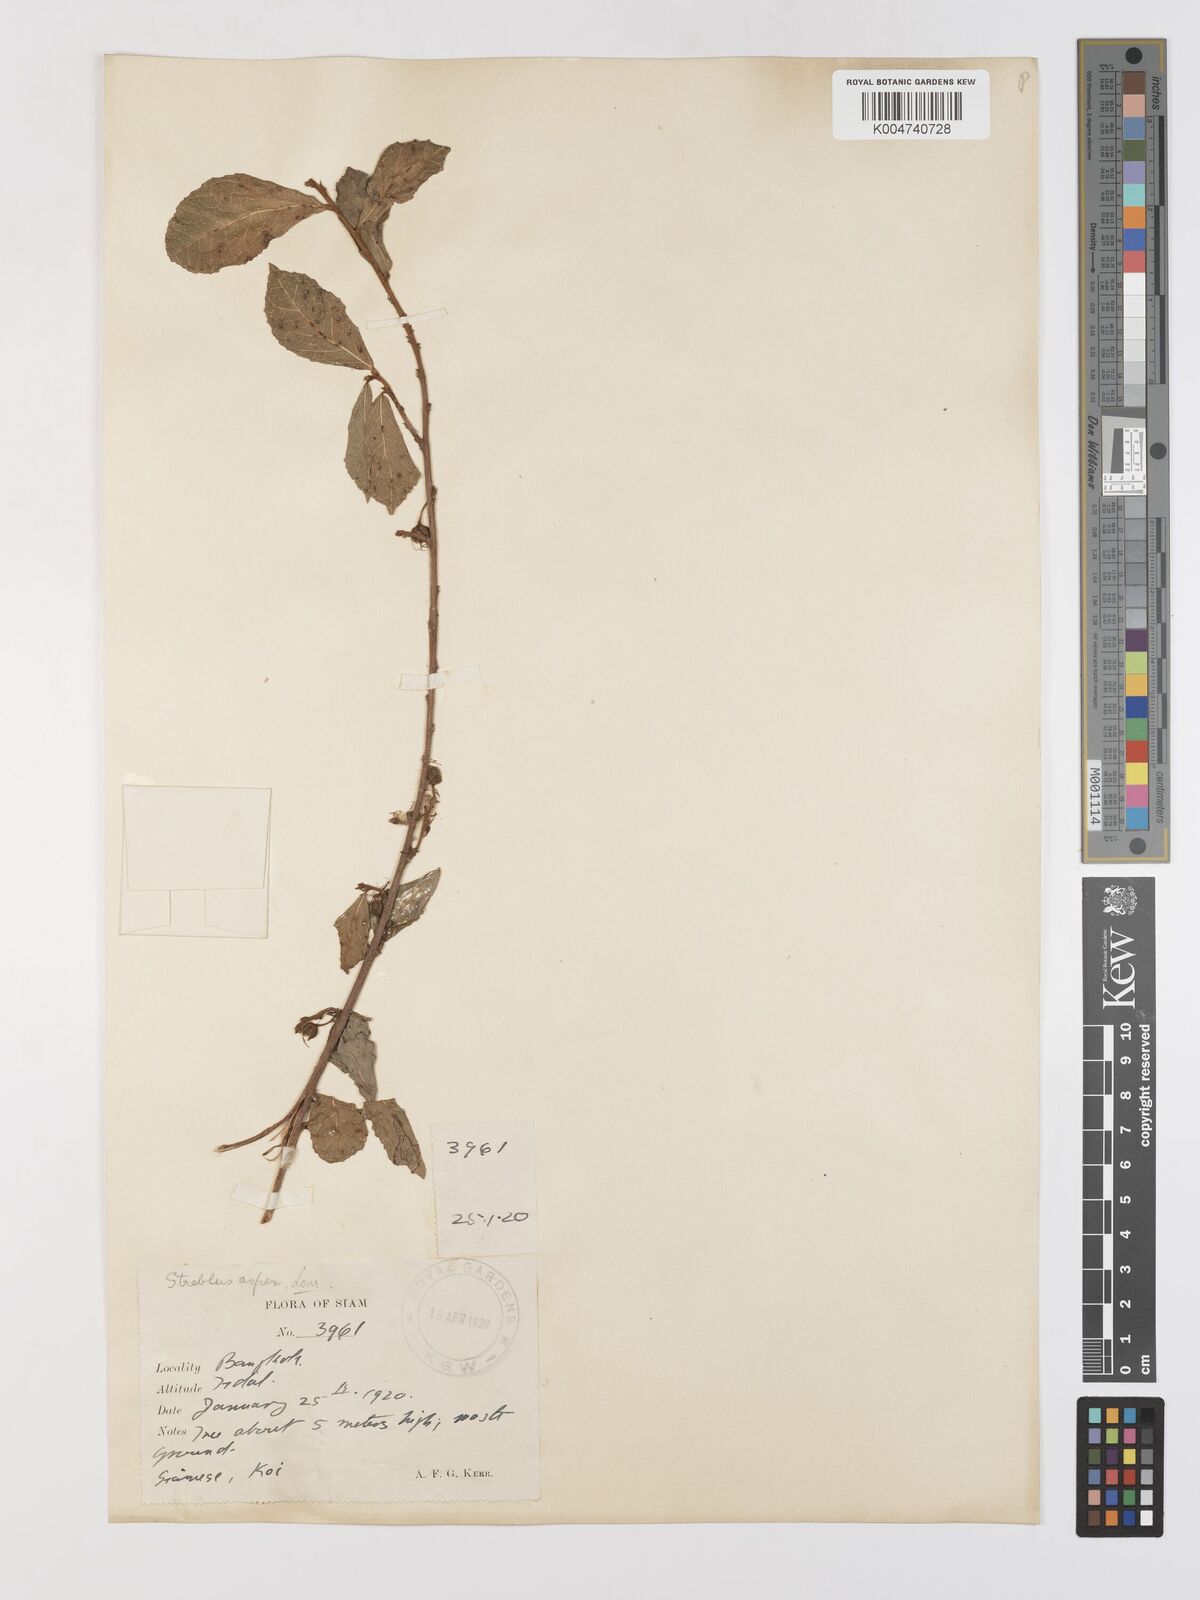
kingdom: Plantae
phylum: Tracheophyta
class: Magnoliopsida
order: Rosales
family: Moraceae
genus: Streblus
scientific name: Streblus asper
